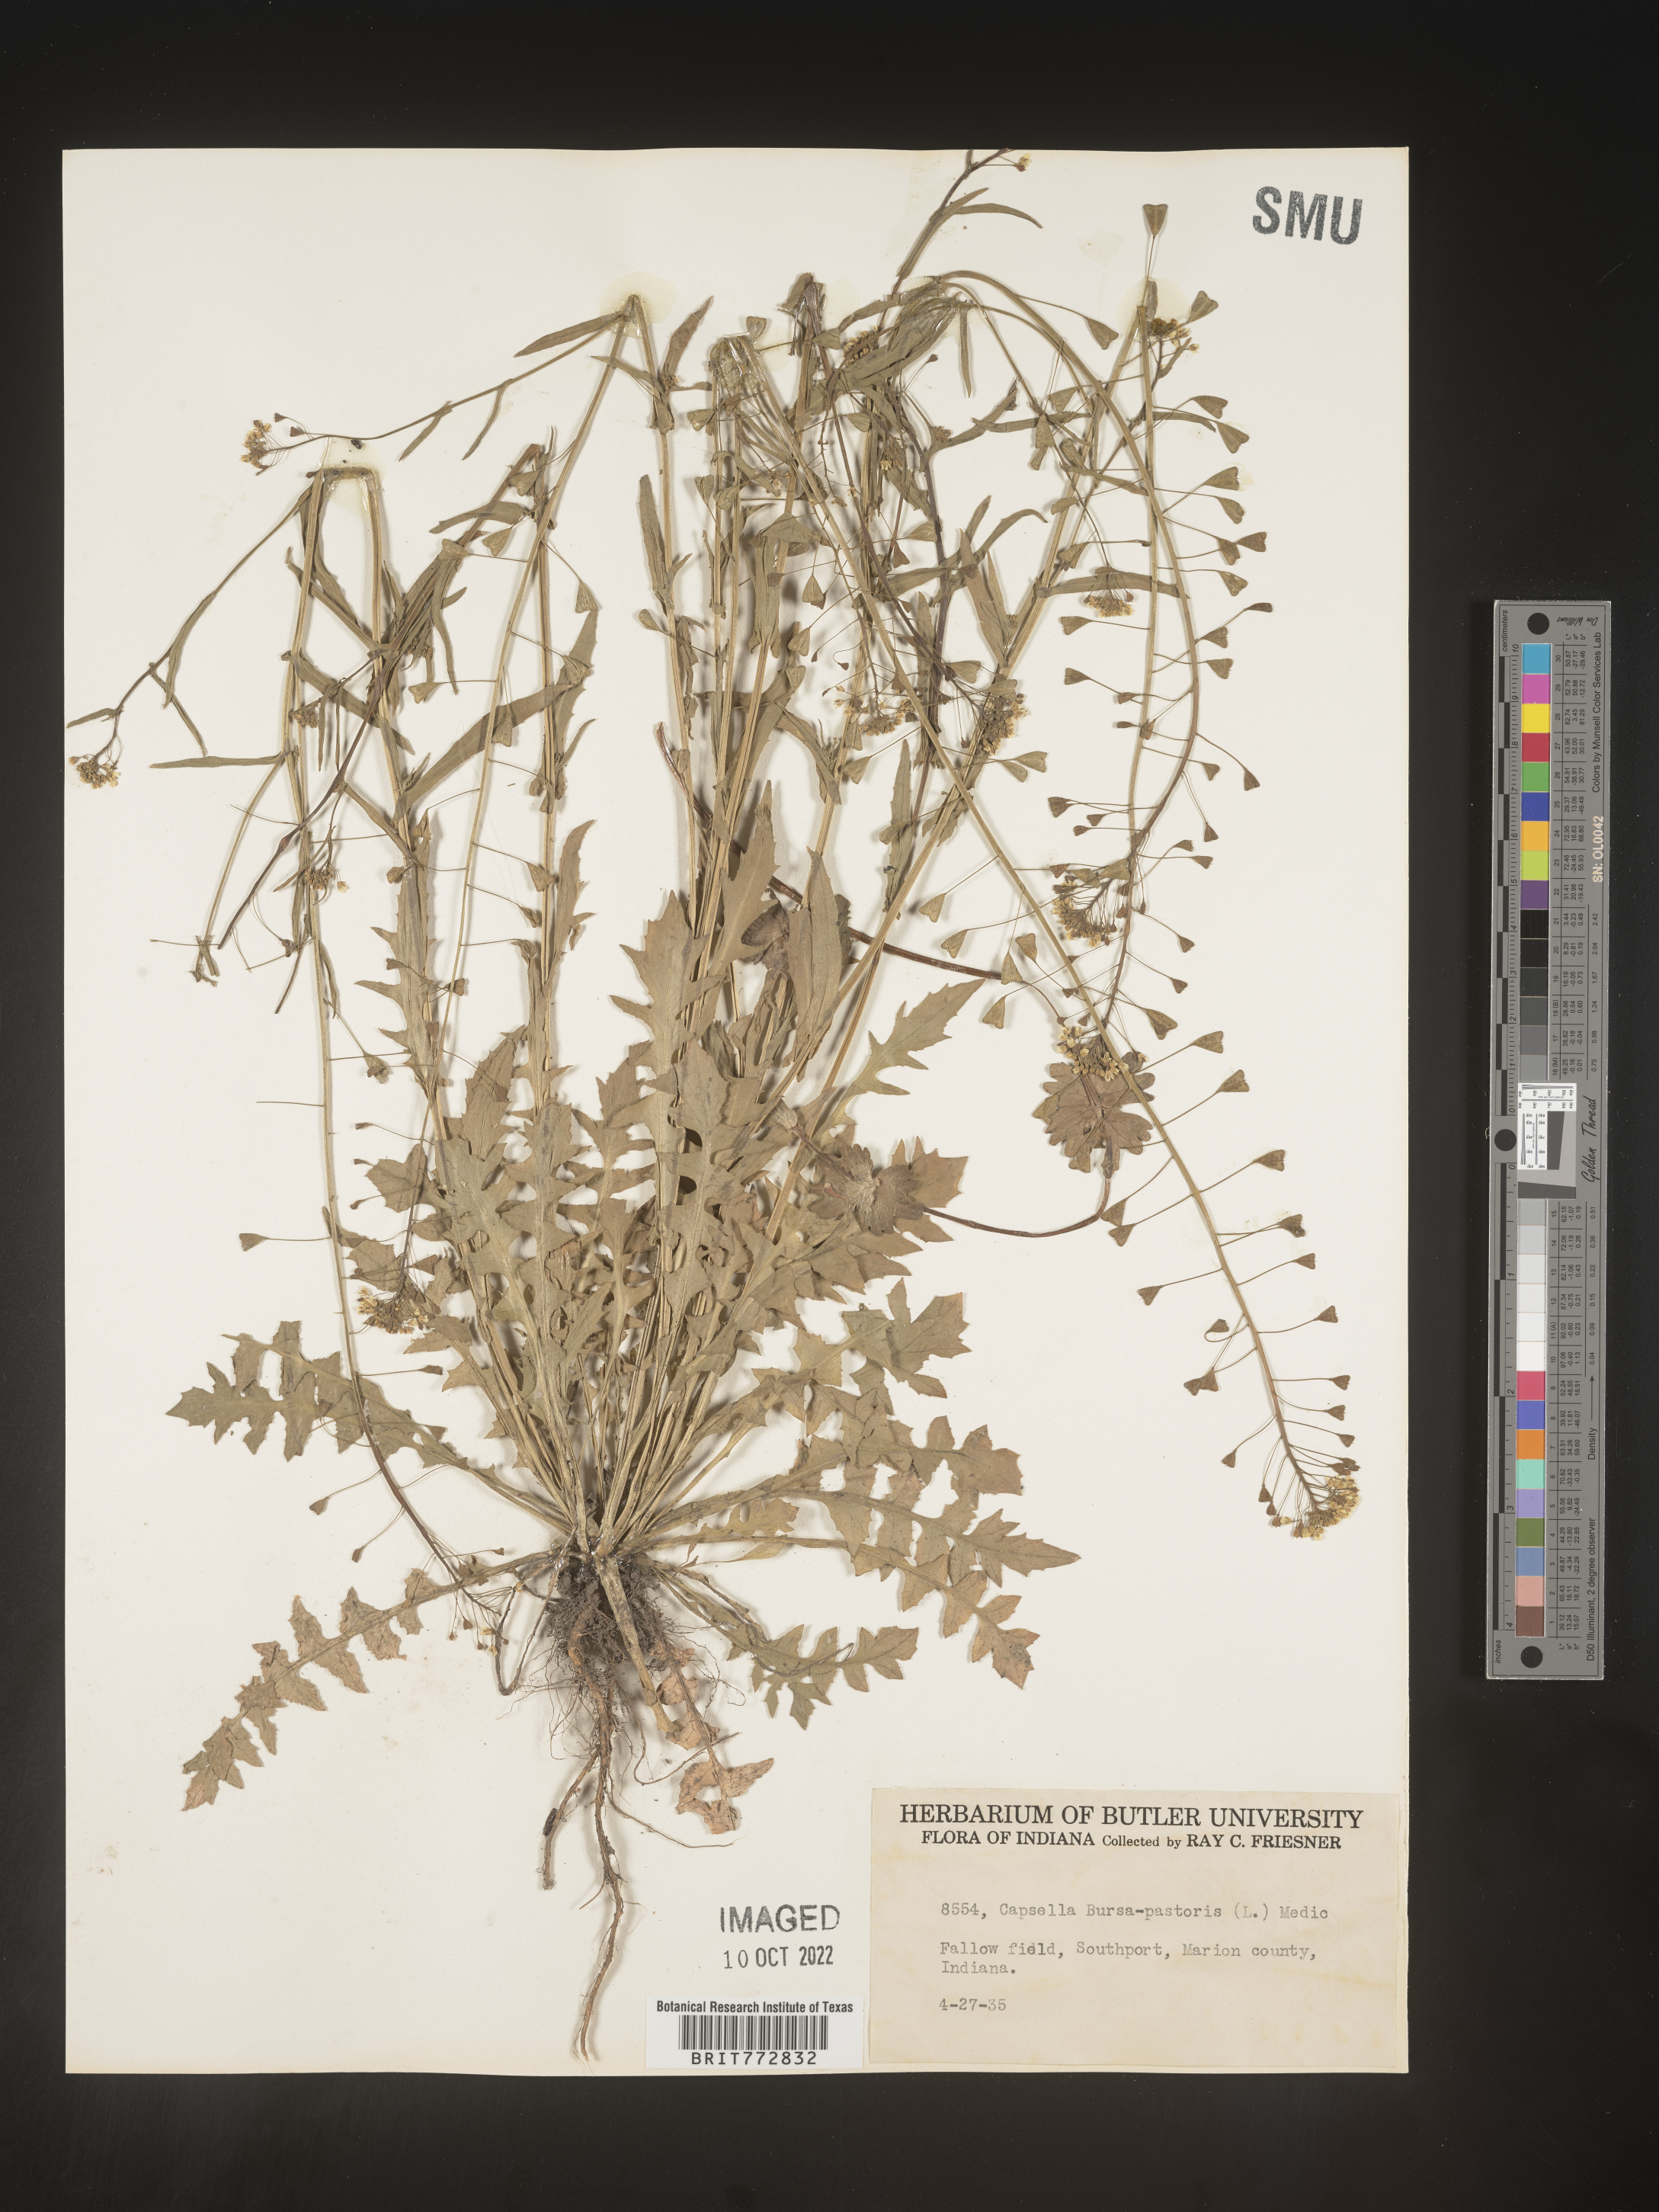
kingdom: Plantae
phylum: Tracheophyta
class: Magnoliopsida
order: Brassicales
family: Brassicaceae
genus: Capsella
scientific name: Capsella bursa-pastoris
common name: Shepherd's purse
